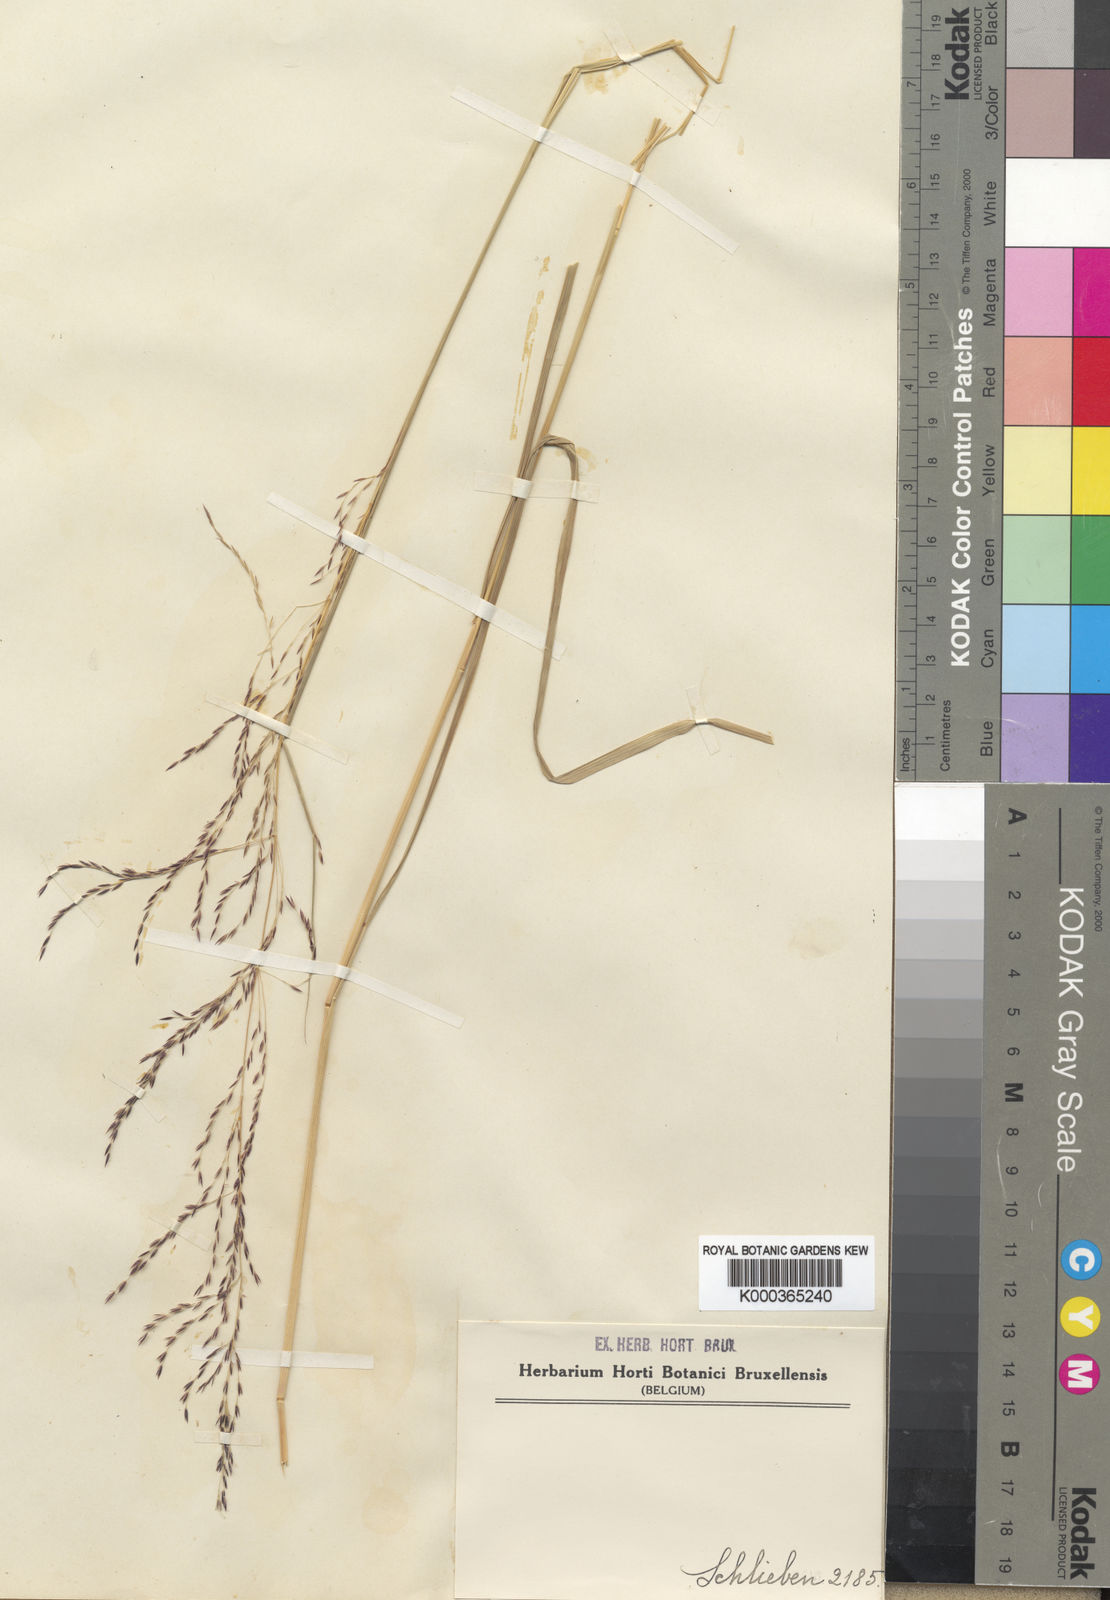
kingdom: Plantae
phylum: Tracheophyta
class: Liliopsida
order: Poales
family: Poaceae
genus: Sporobolus
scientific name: Sporobolus sanguineus
